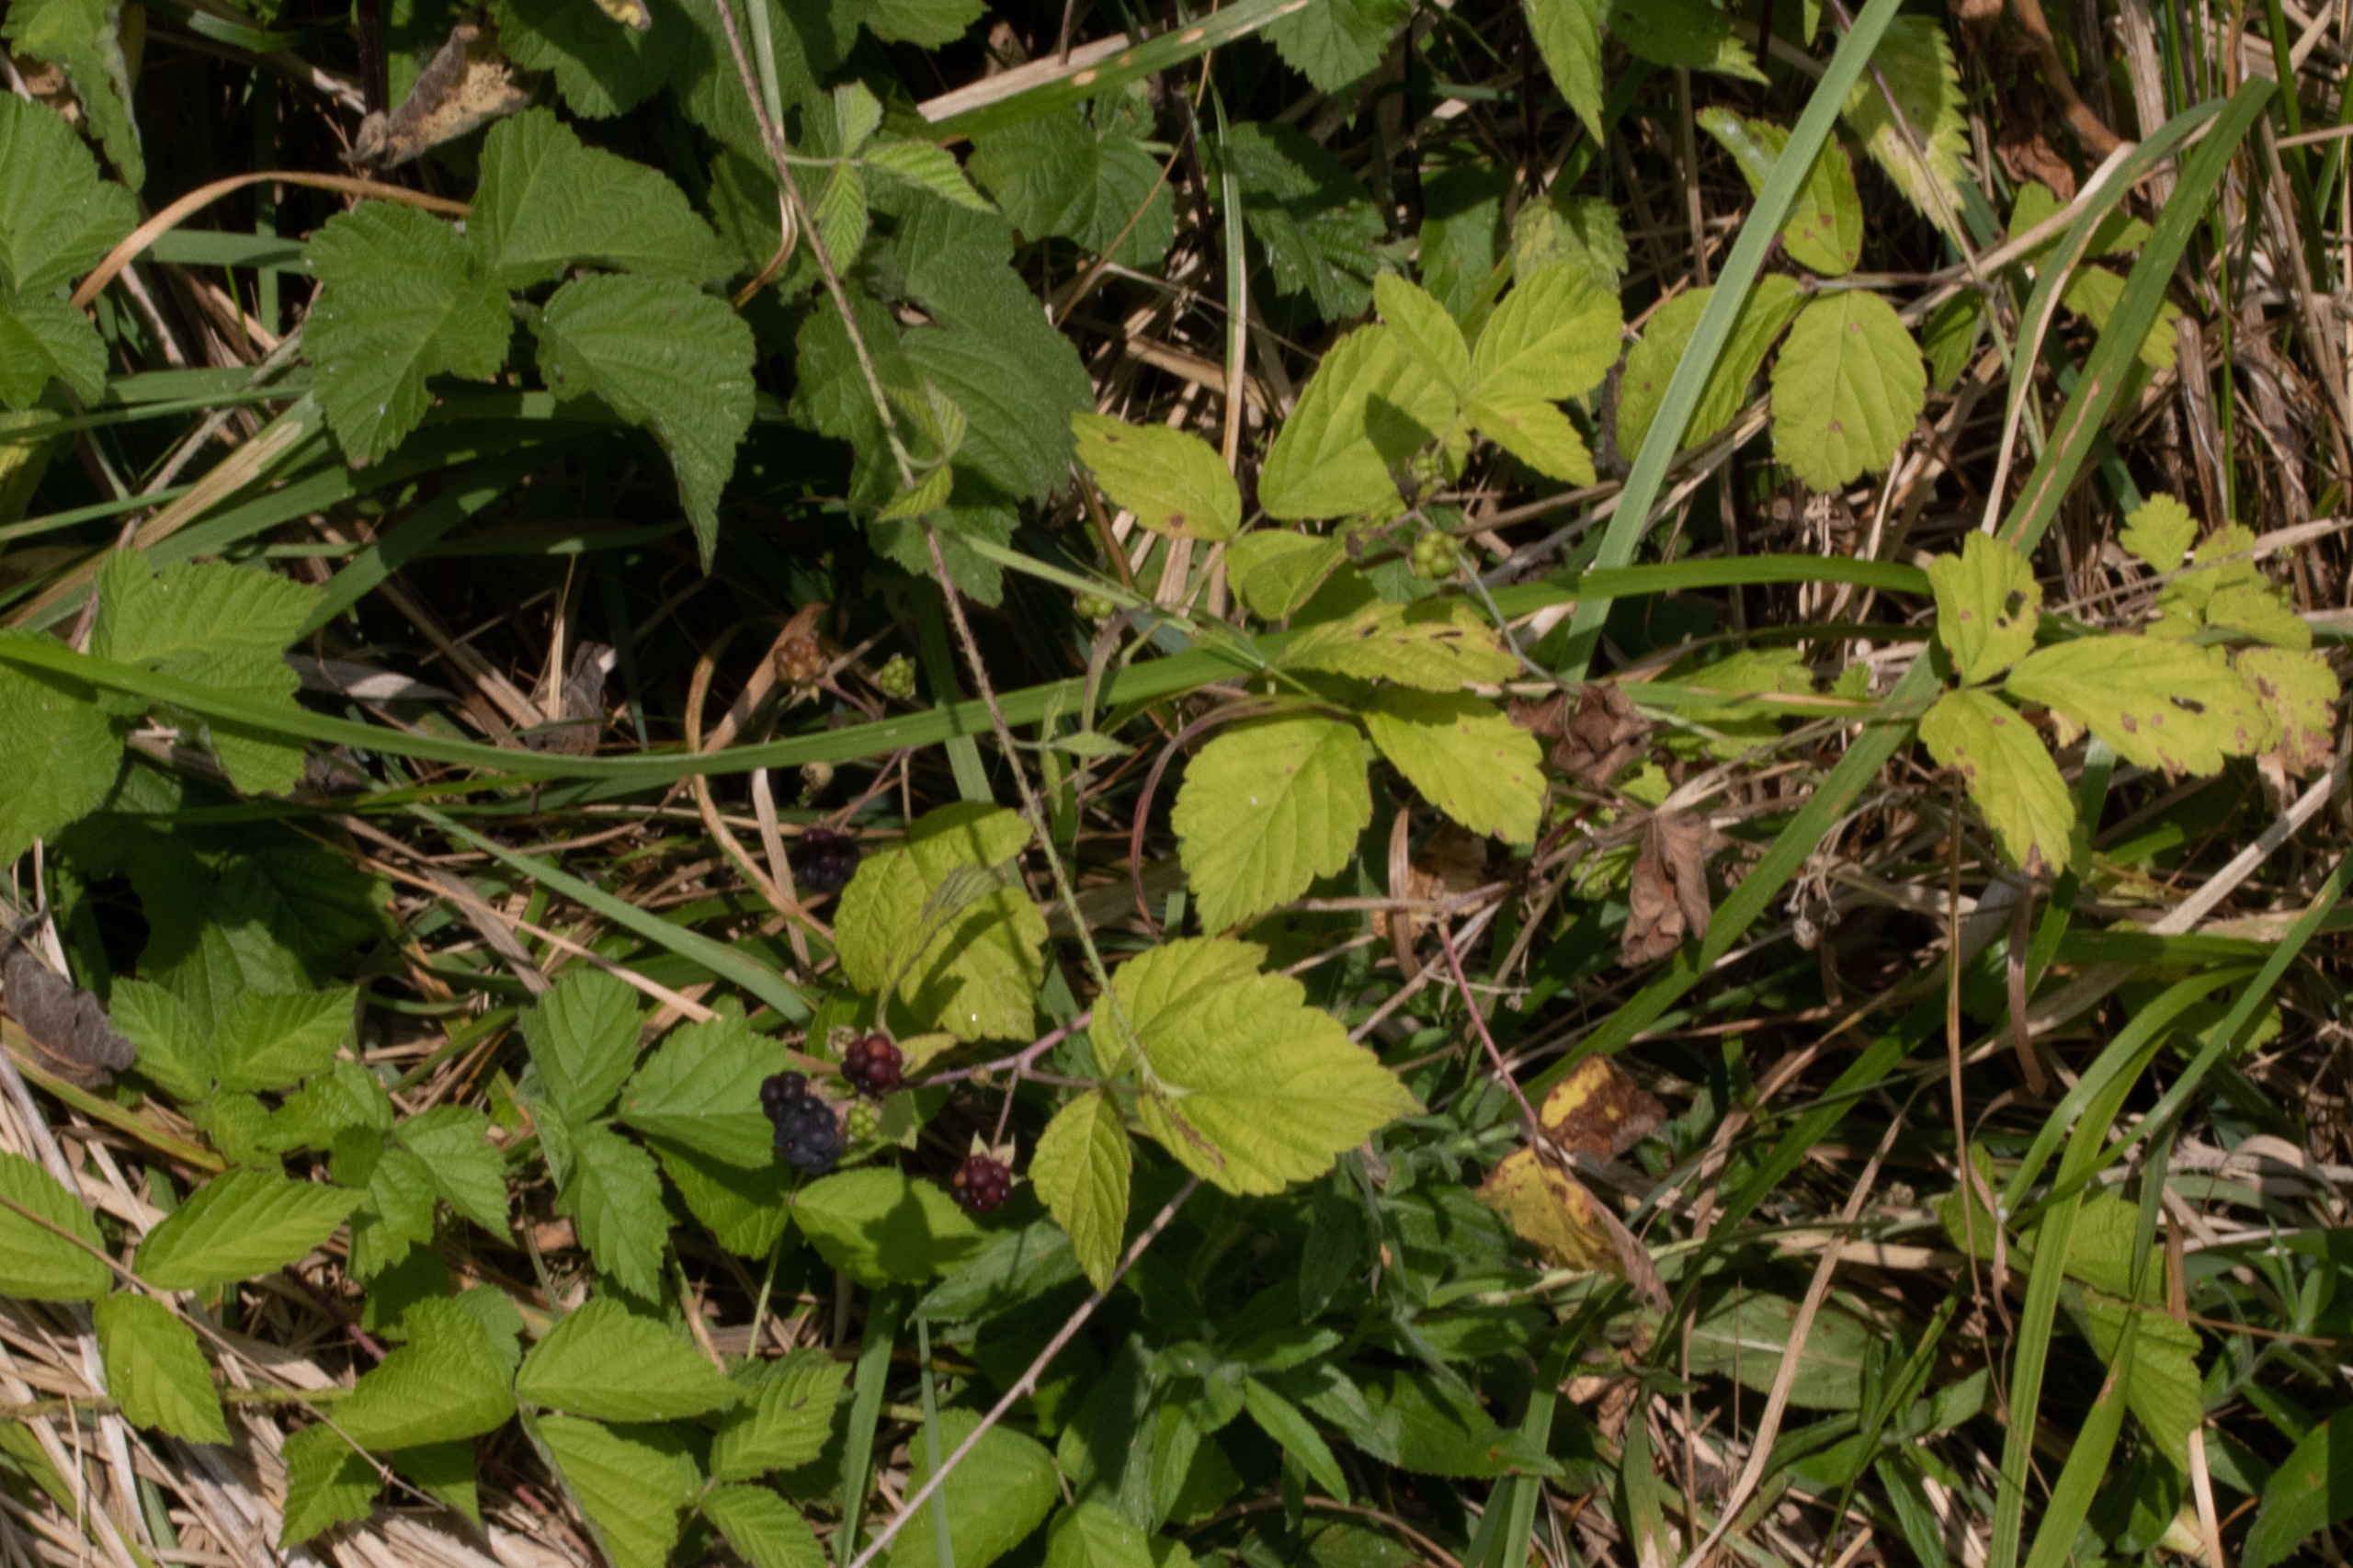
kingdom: Plantae
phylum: Tracheophyta
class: Magnoliopsida
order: Rosales
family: Rosaceae
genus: Rubus
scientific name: Rubus caesius
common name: Korbær
